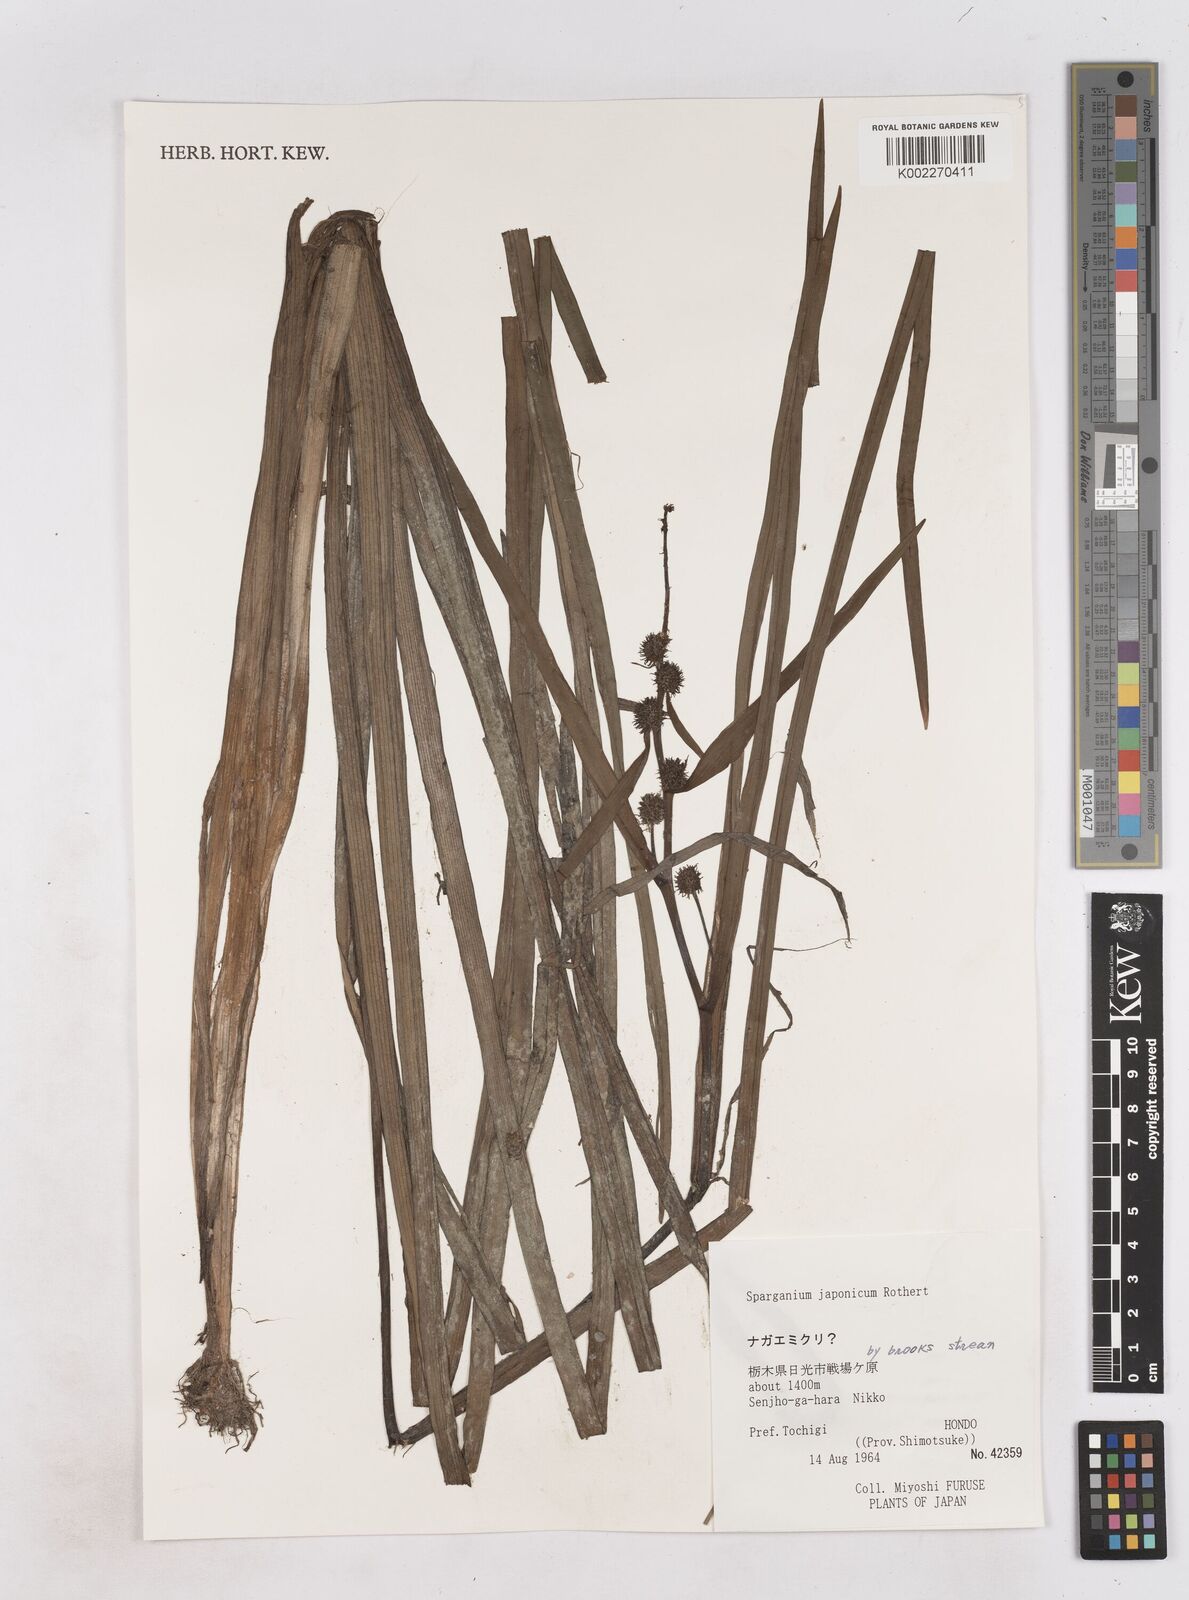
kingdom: Plantae
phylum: Tracheophyta
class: Liliopsida
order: Poales
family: Typhaceae
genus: Sparganium
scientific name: Sparganium japonicum
